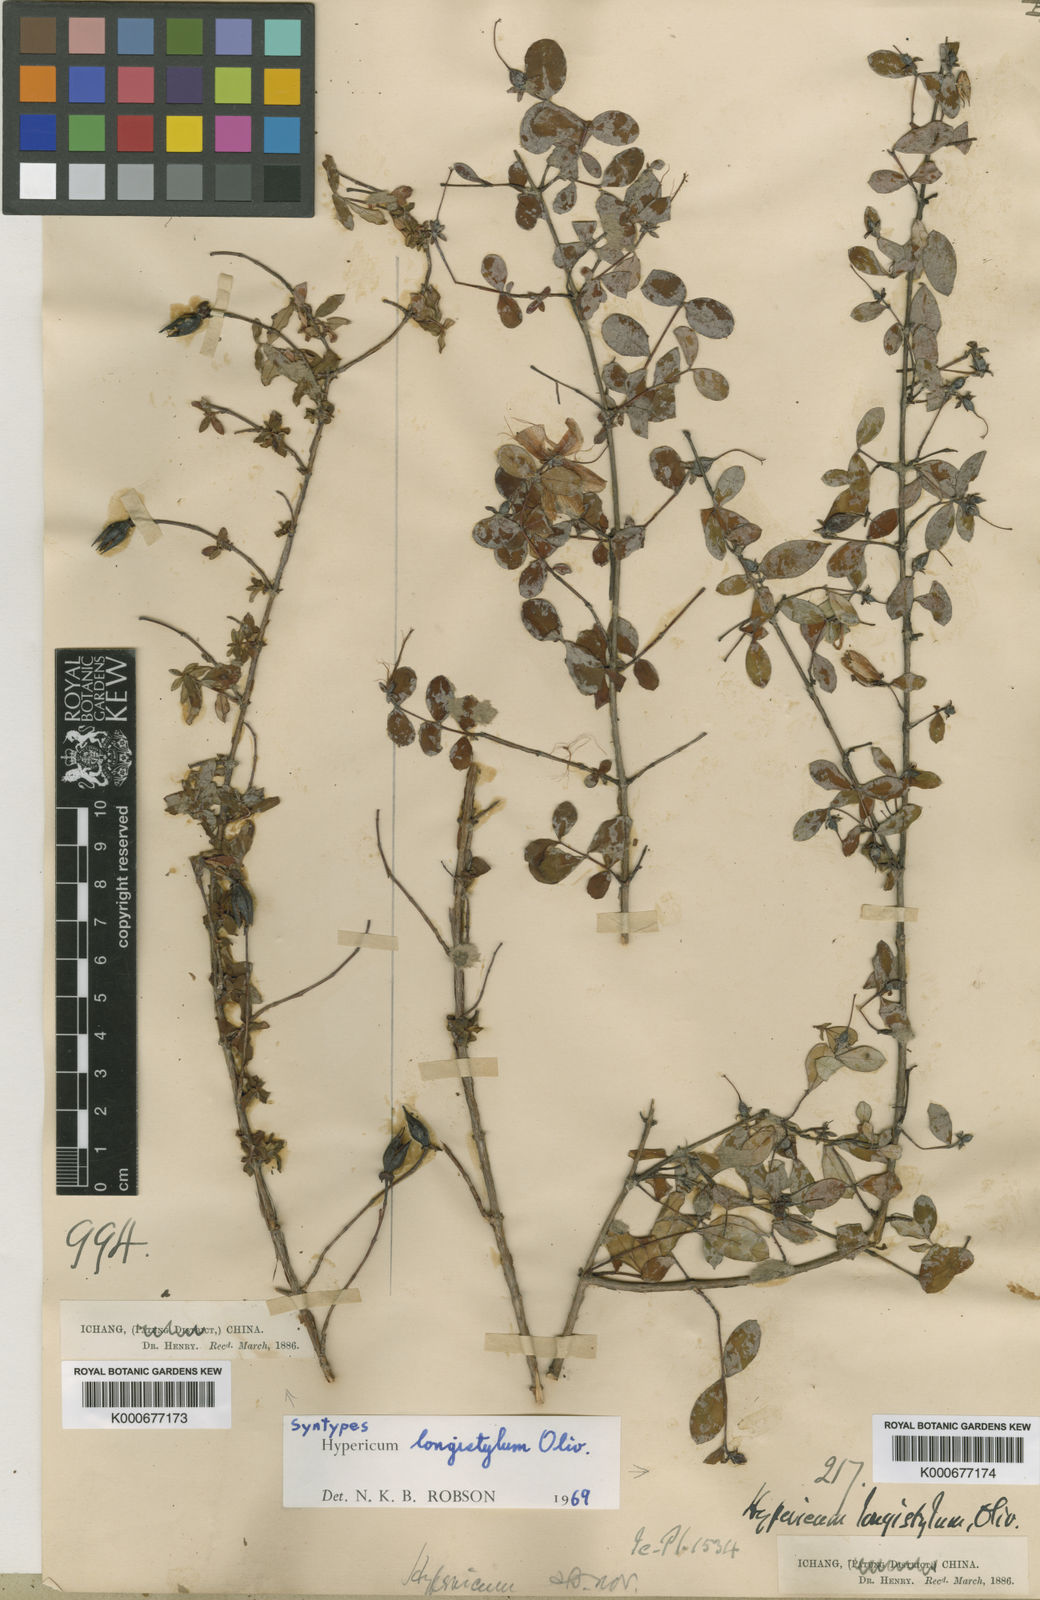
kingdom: Plantae
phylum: Tracheophyta
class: Magnoliopsida
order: Malpighiales
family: Hypericaceae
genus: Hypericum
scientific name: Hypericum longistylum
